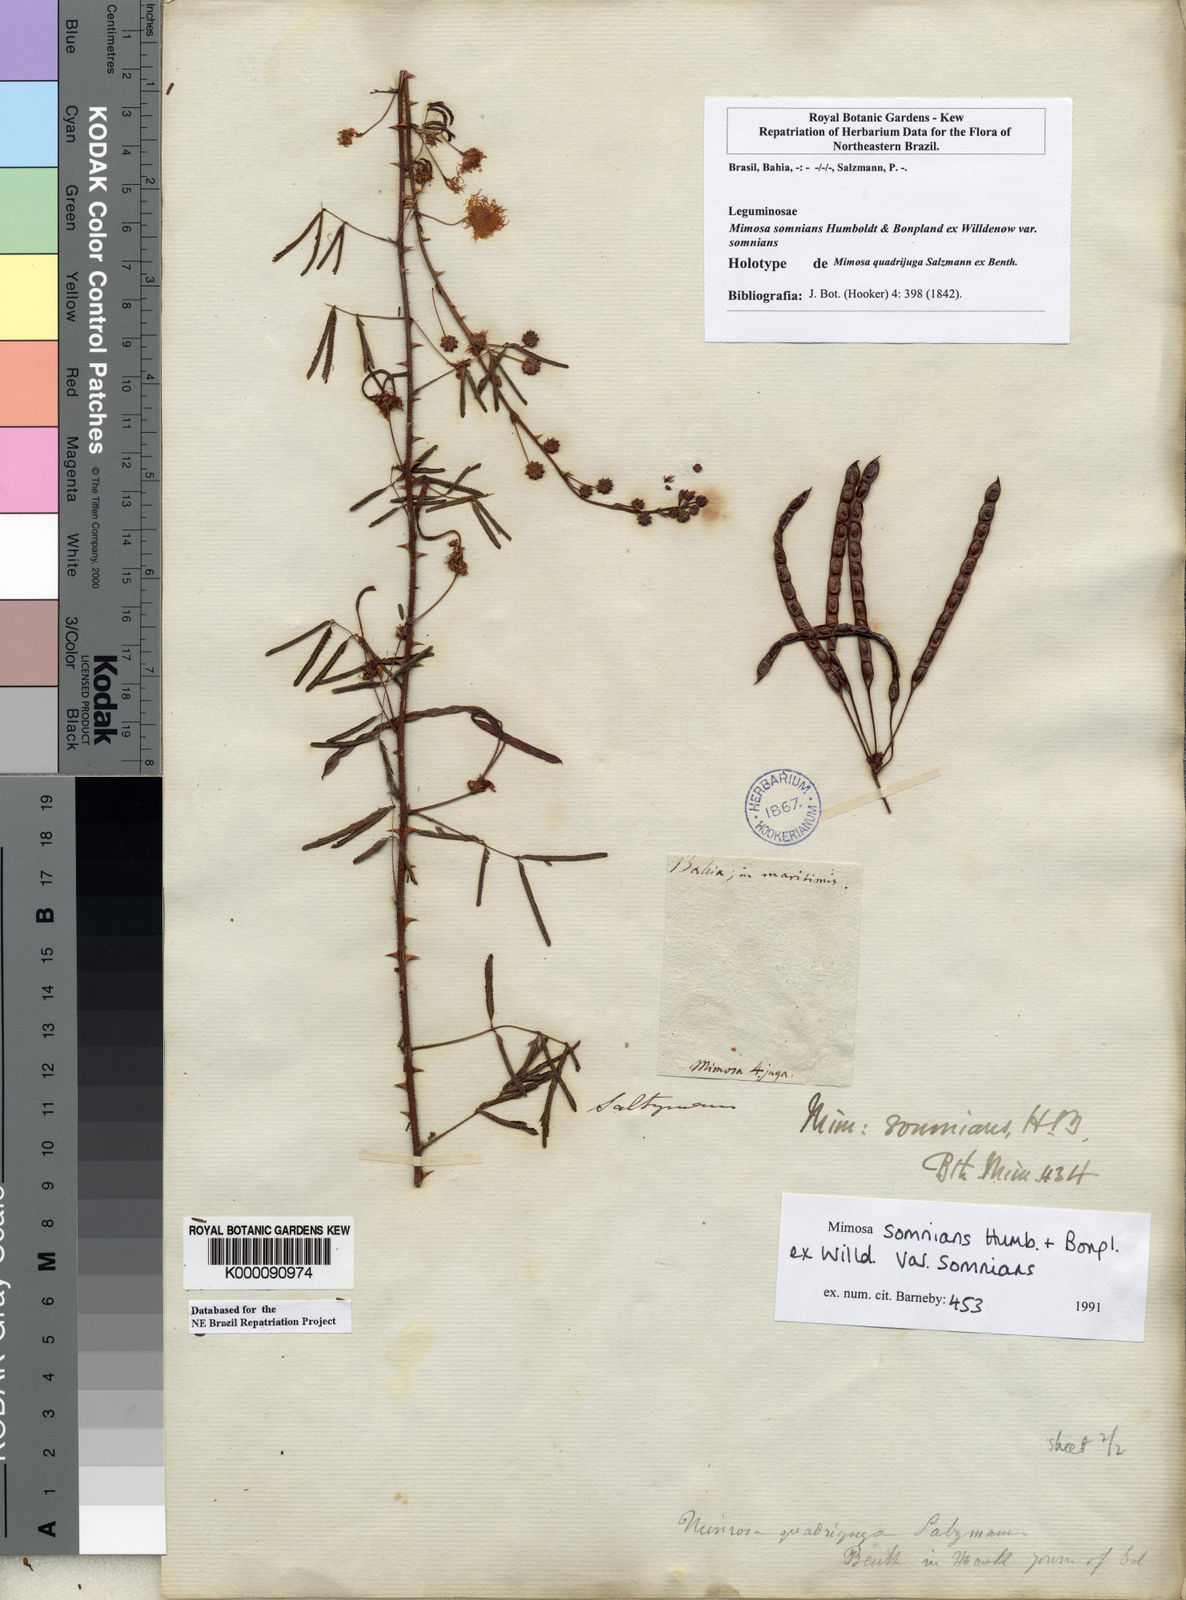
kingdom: Plantae
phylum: Tracheophyta
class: Magnoliopsida
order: Fabales
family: Fabaceae
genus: Mimosa
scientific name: Mimosa somnians
